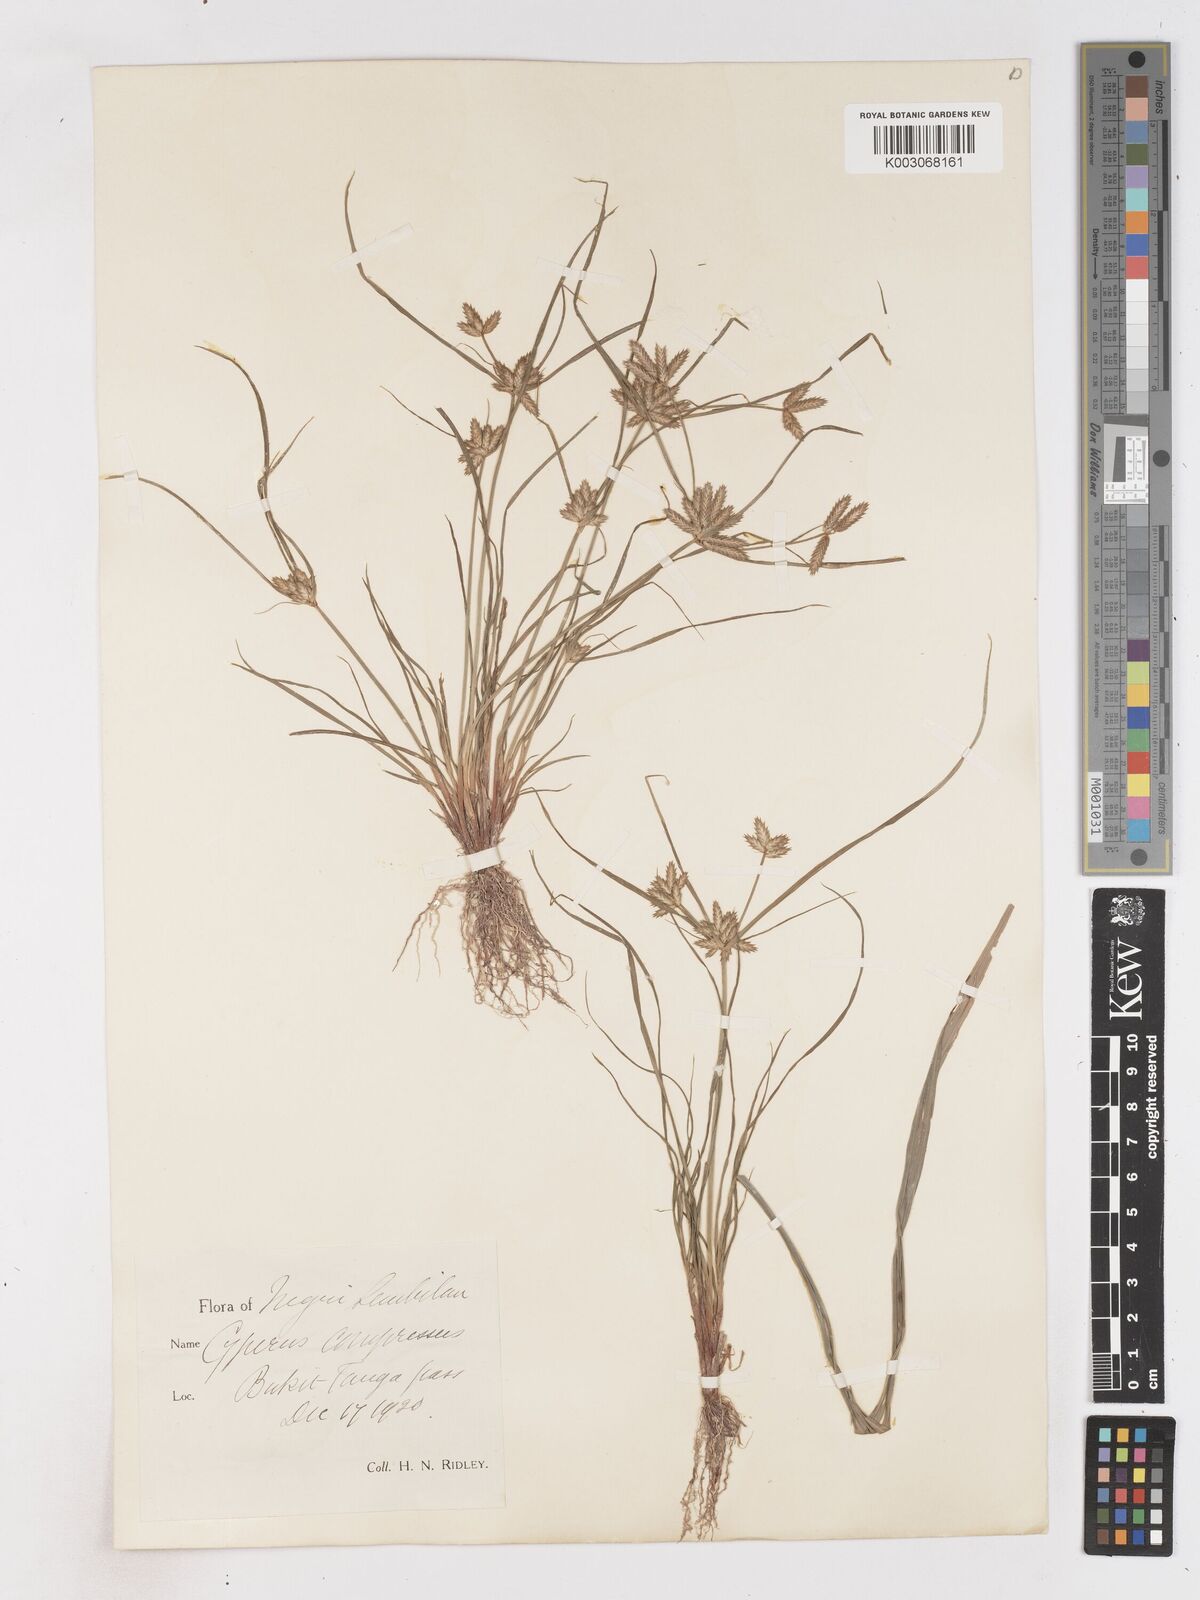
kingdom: Plantae
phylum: Tracheophyta
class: Liliopsida
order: Poales
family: Cyperaceae
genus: Cyperus
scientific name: Cyperus compressus
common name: Poorland flatsedge
